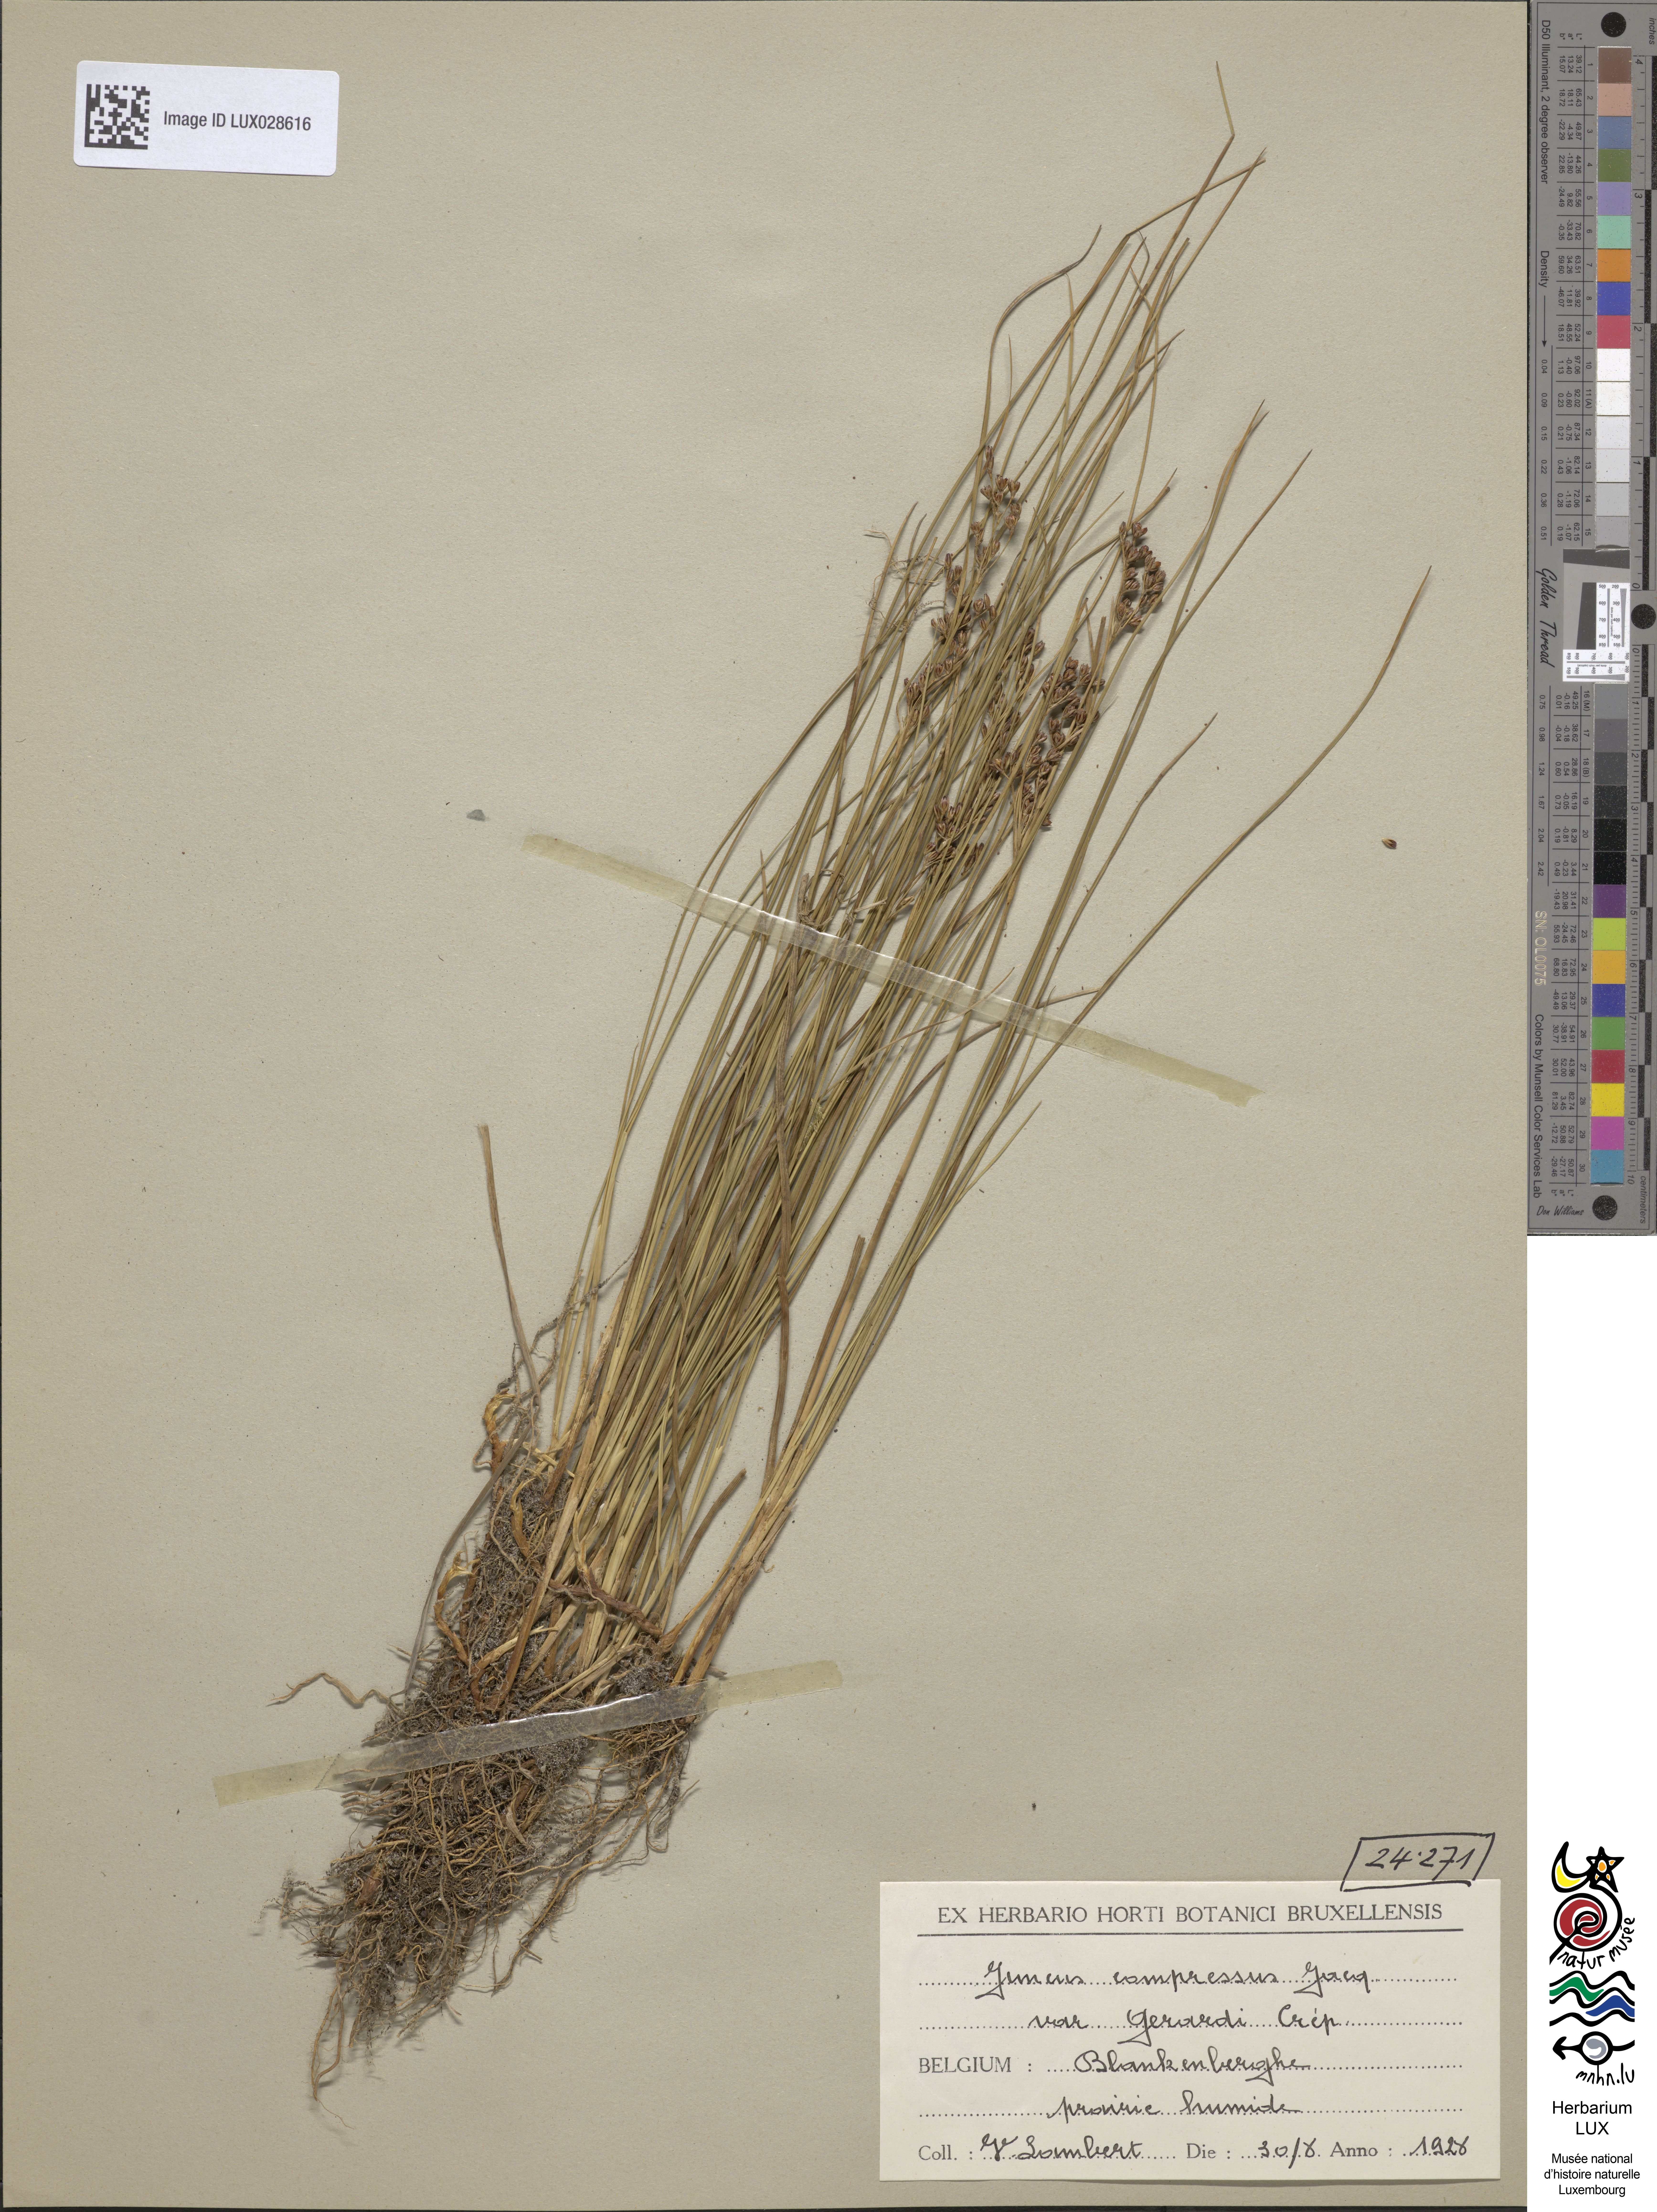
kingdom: Plantae
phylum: Tracheophyta
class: Liliopsida
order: Poales
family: Juncaceae
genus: Juncus
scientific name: Juncus gerardi
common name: Saltmarsh rush
